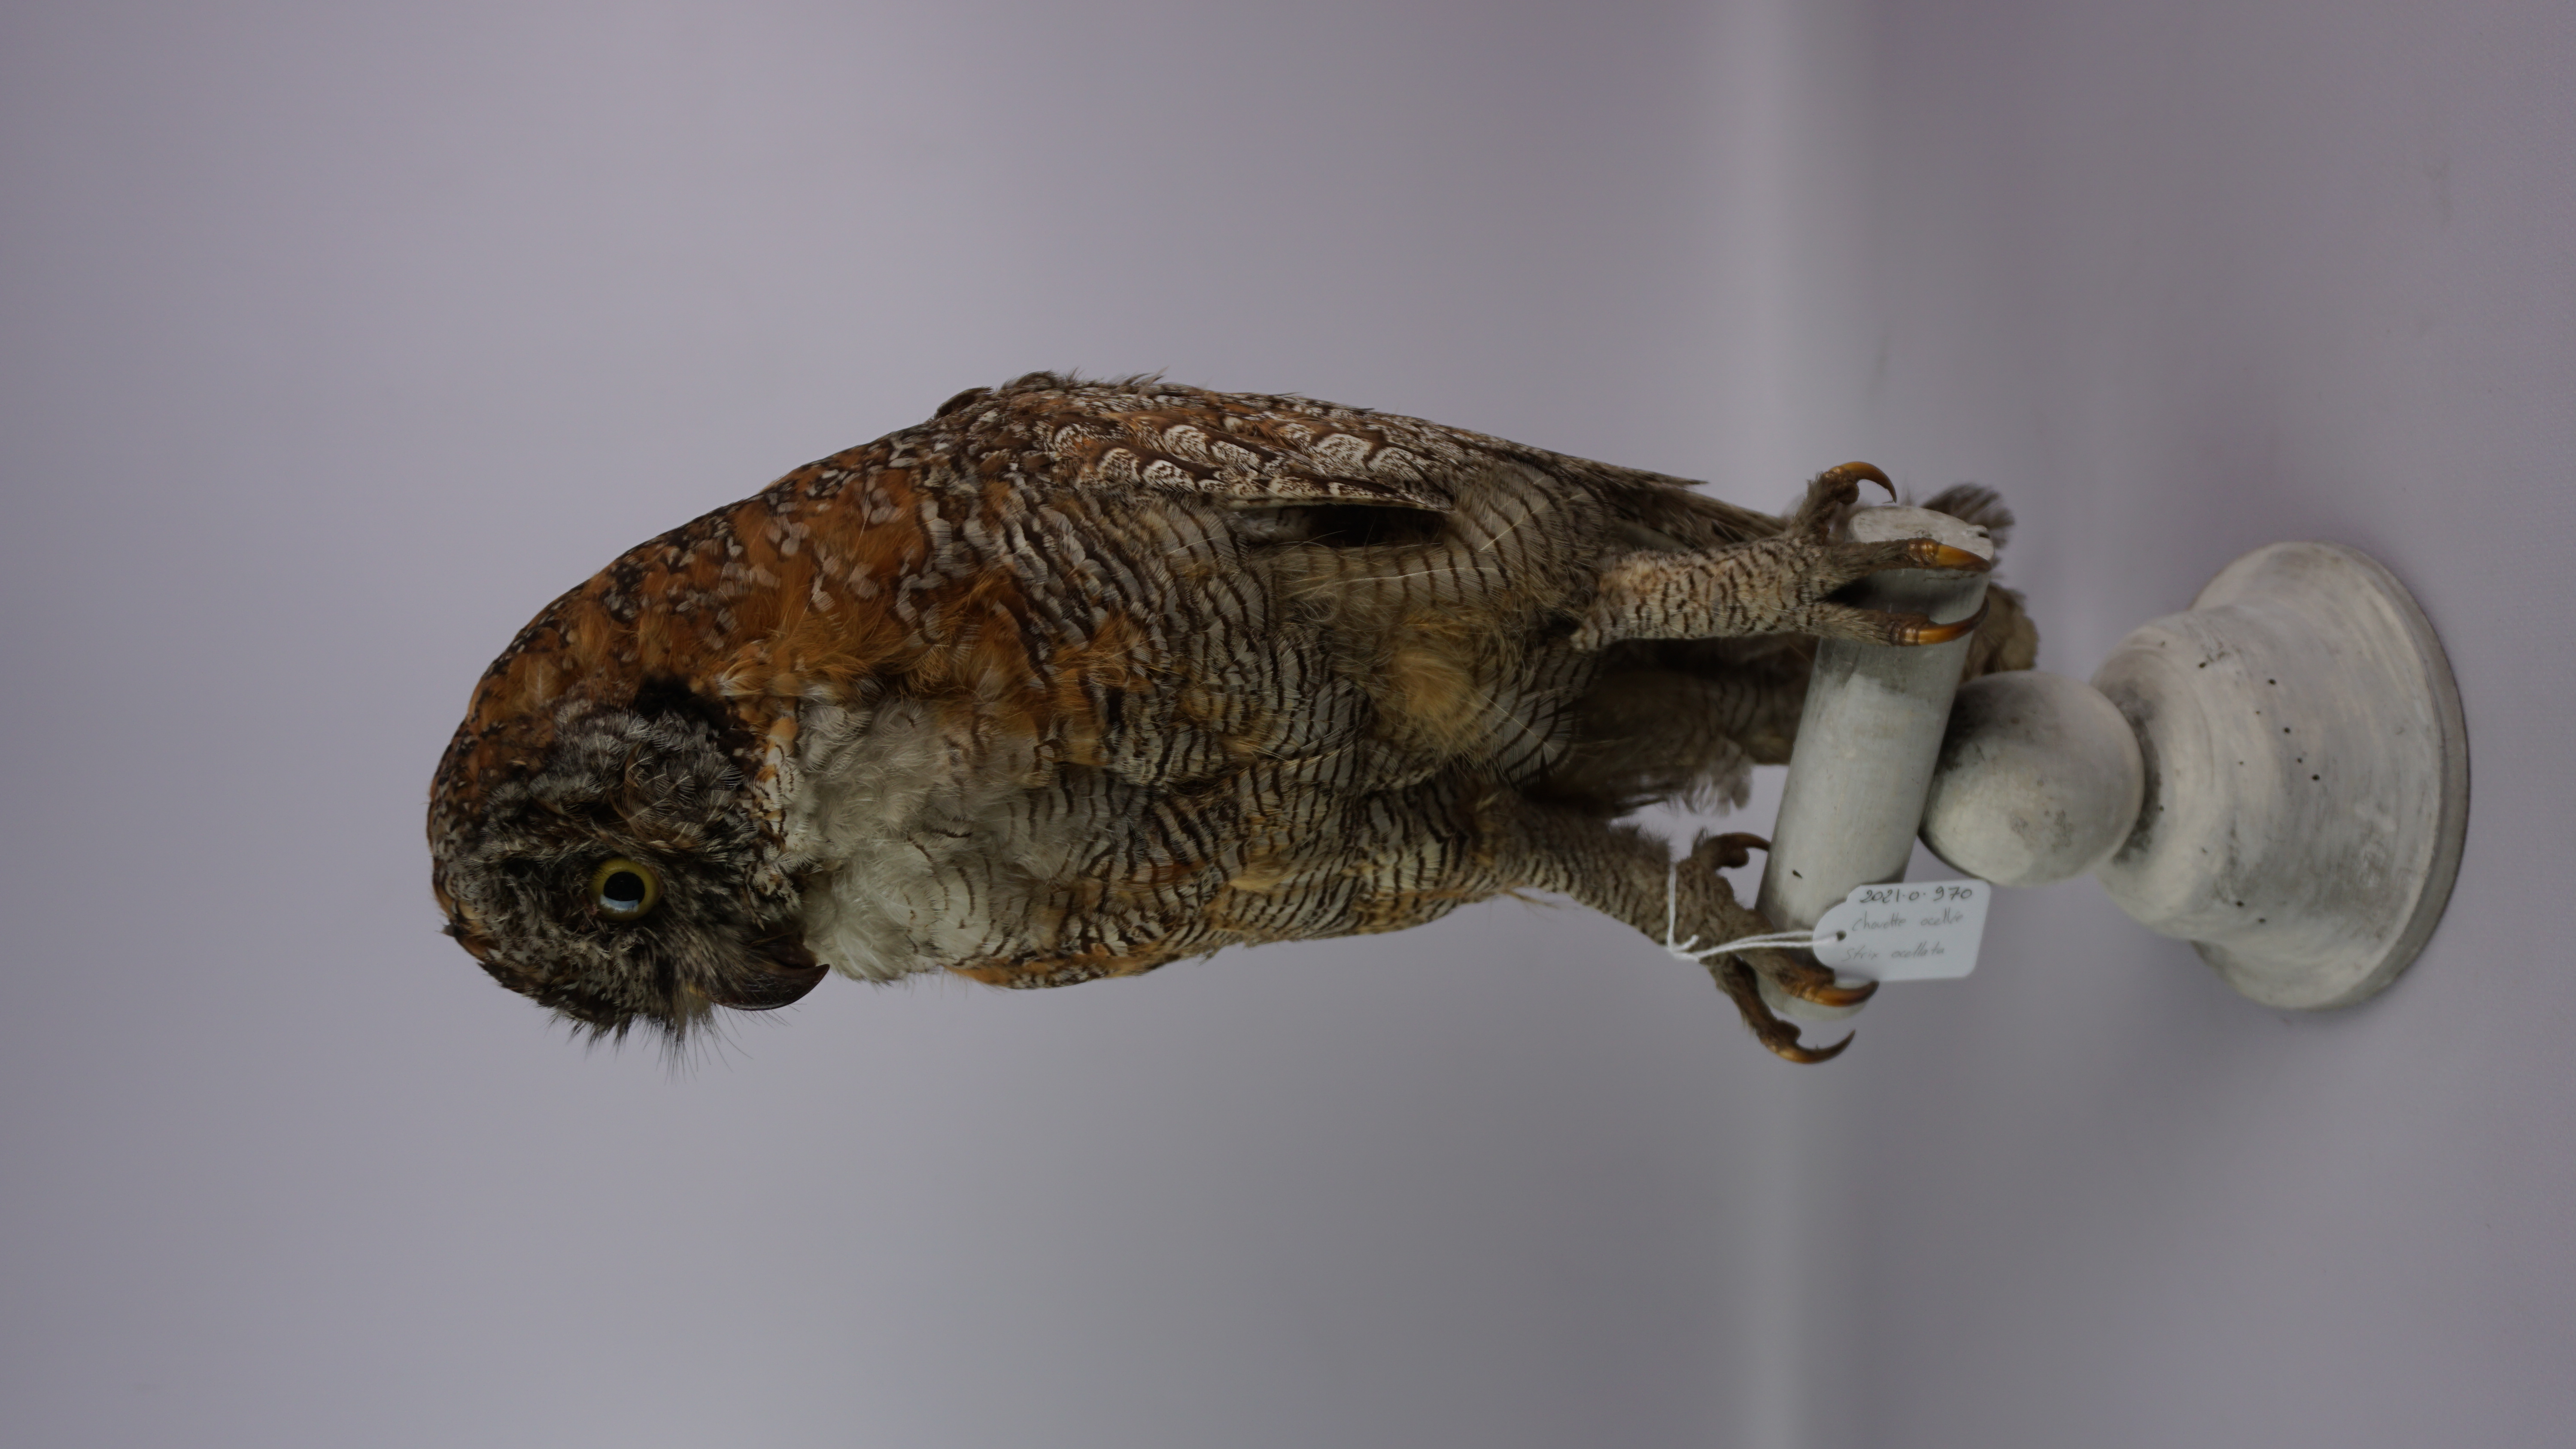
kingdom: Animalia
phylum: Chordata
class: Aves
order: Strigiformes
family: Strigidae
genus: Strix
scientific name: Strix ocellata
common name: Mottled wood owl
